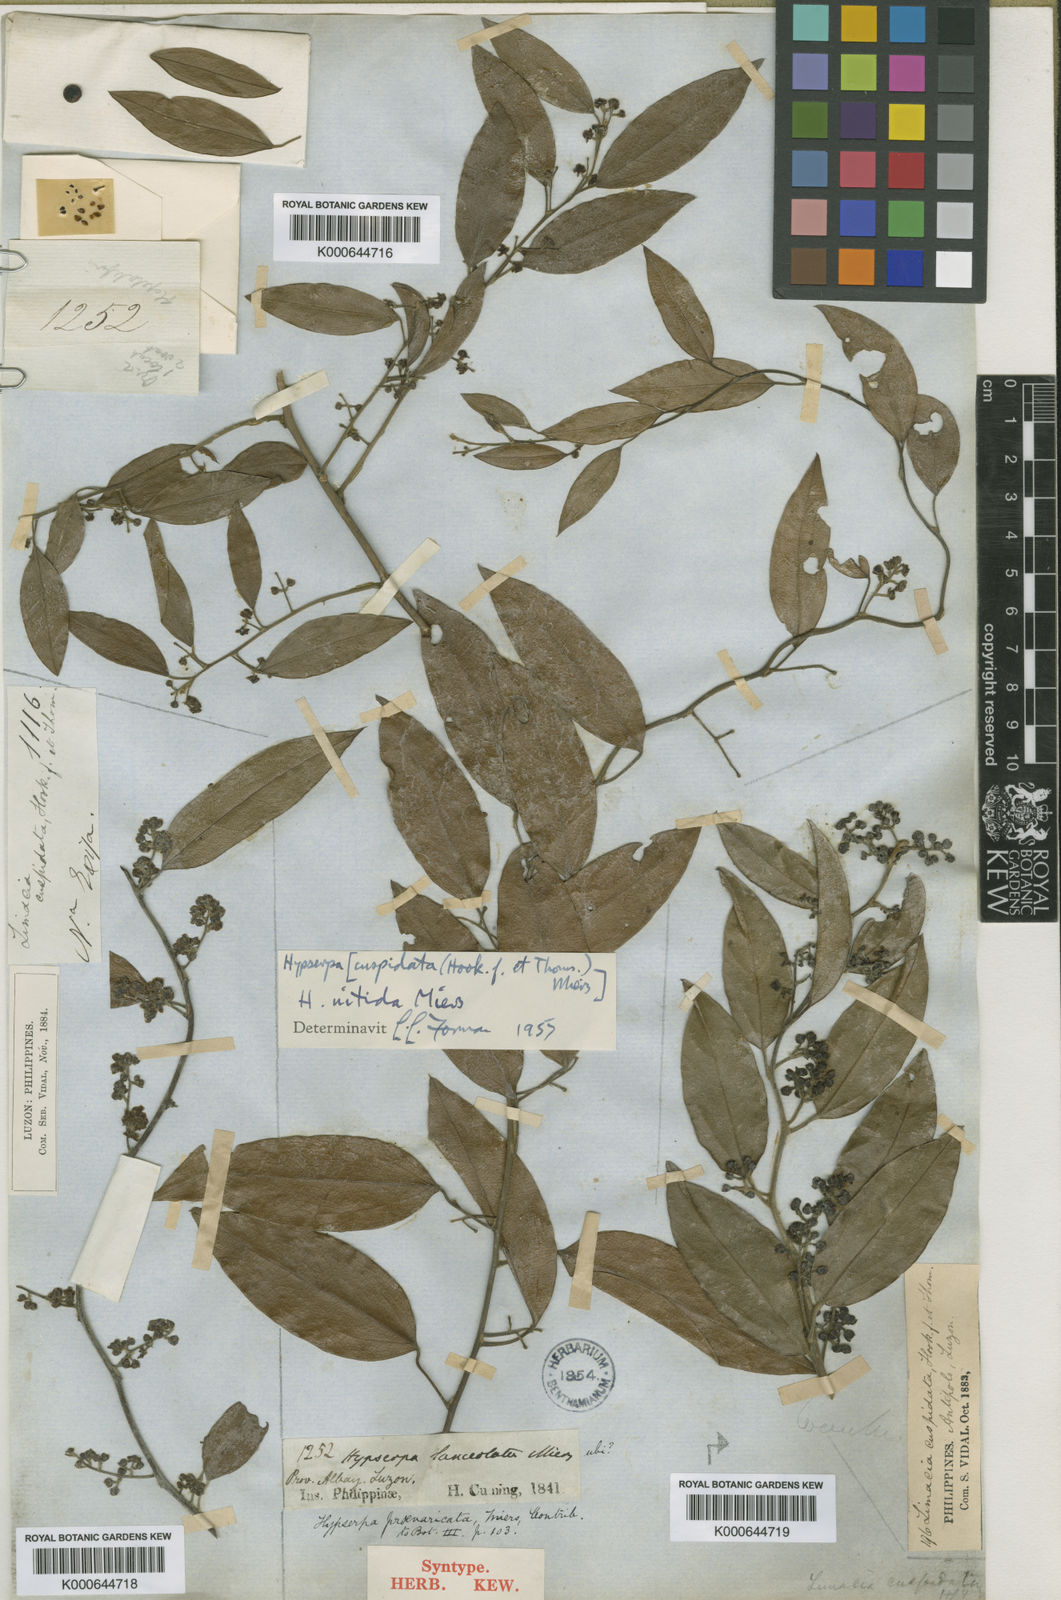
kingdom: Plantae
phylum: Tracheophyta
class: Magnoliopsida
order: Ranunculales
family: Menispermaceae
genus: Hypserpa
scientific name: Hypserpa
